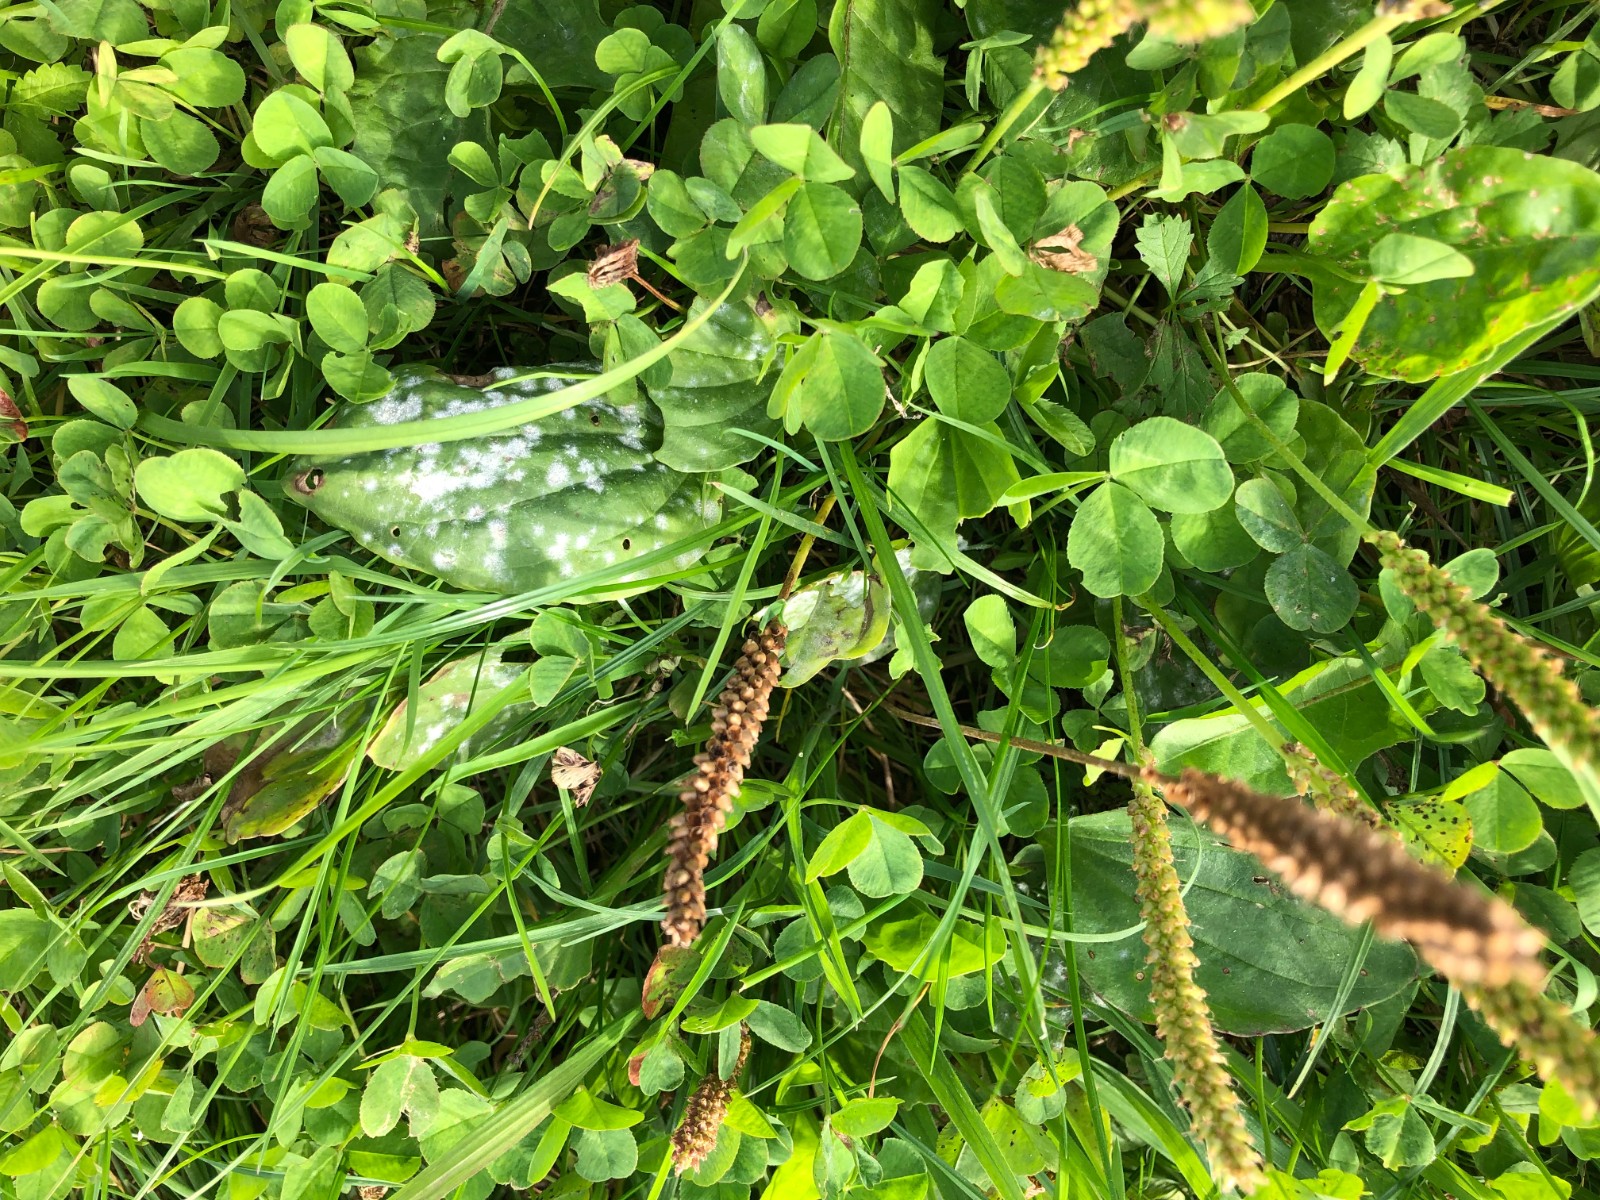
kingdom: Fungi
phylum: Ascomycota
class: Leotiomycetes
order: Helotiales
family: Erysiphaceae
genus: Golovinomyces
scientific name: Golovinomyces sordidus
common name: Plantain mildew
